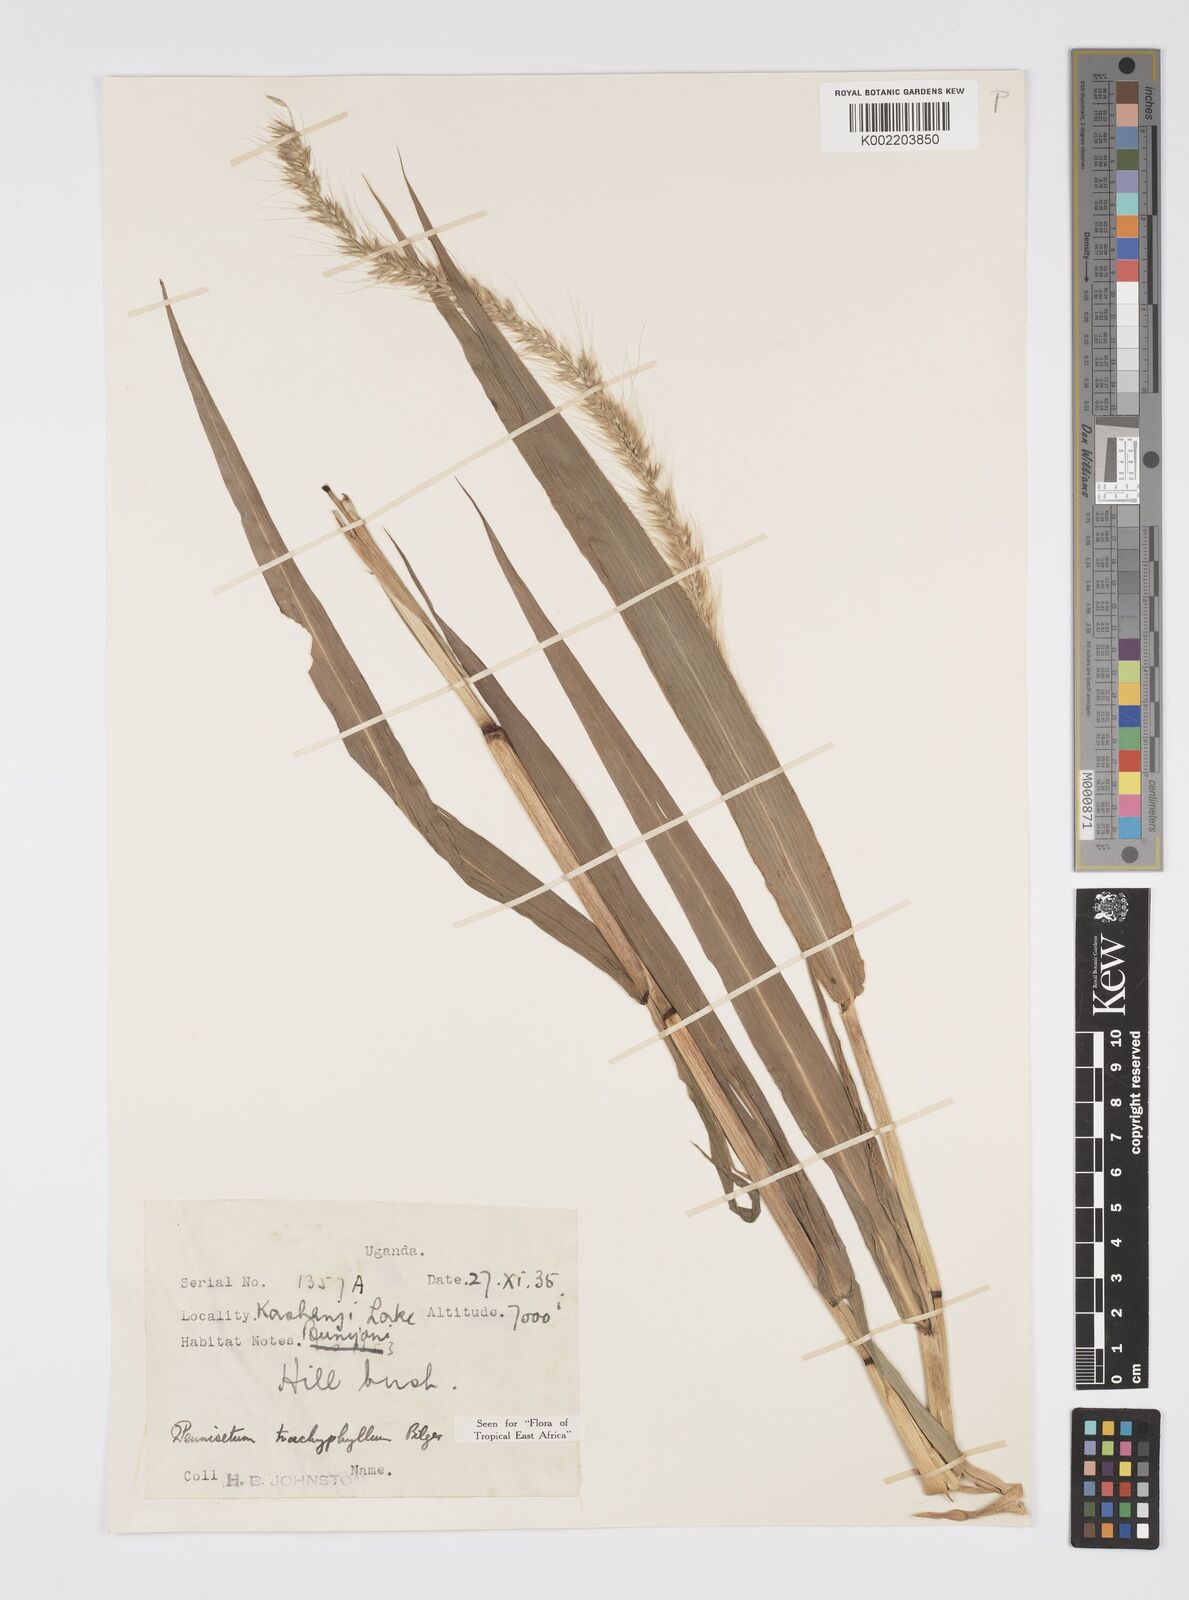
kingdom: Plantae
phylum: Tracheophyta
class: Liliopsida
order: Poales
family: Poaceae
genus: Cenchrus
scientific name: Cenchrus trachyphyllus
